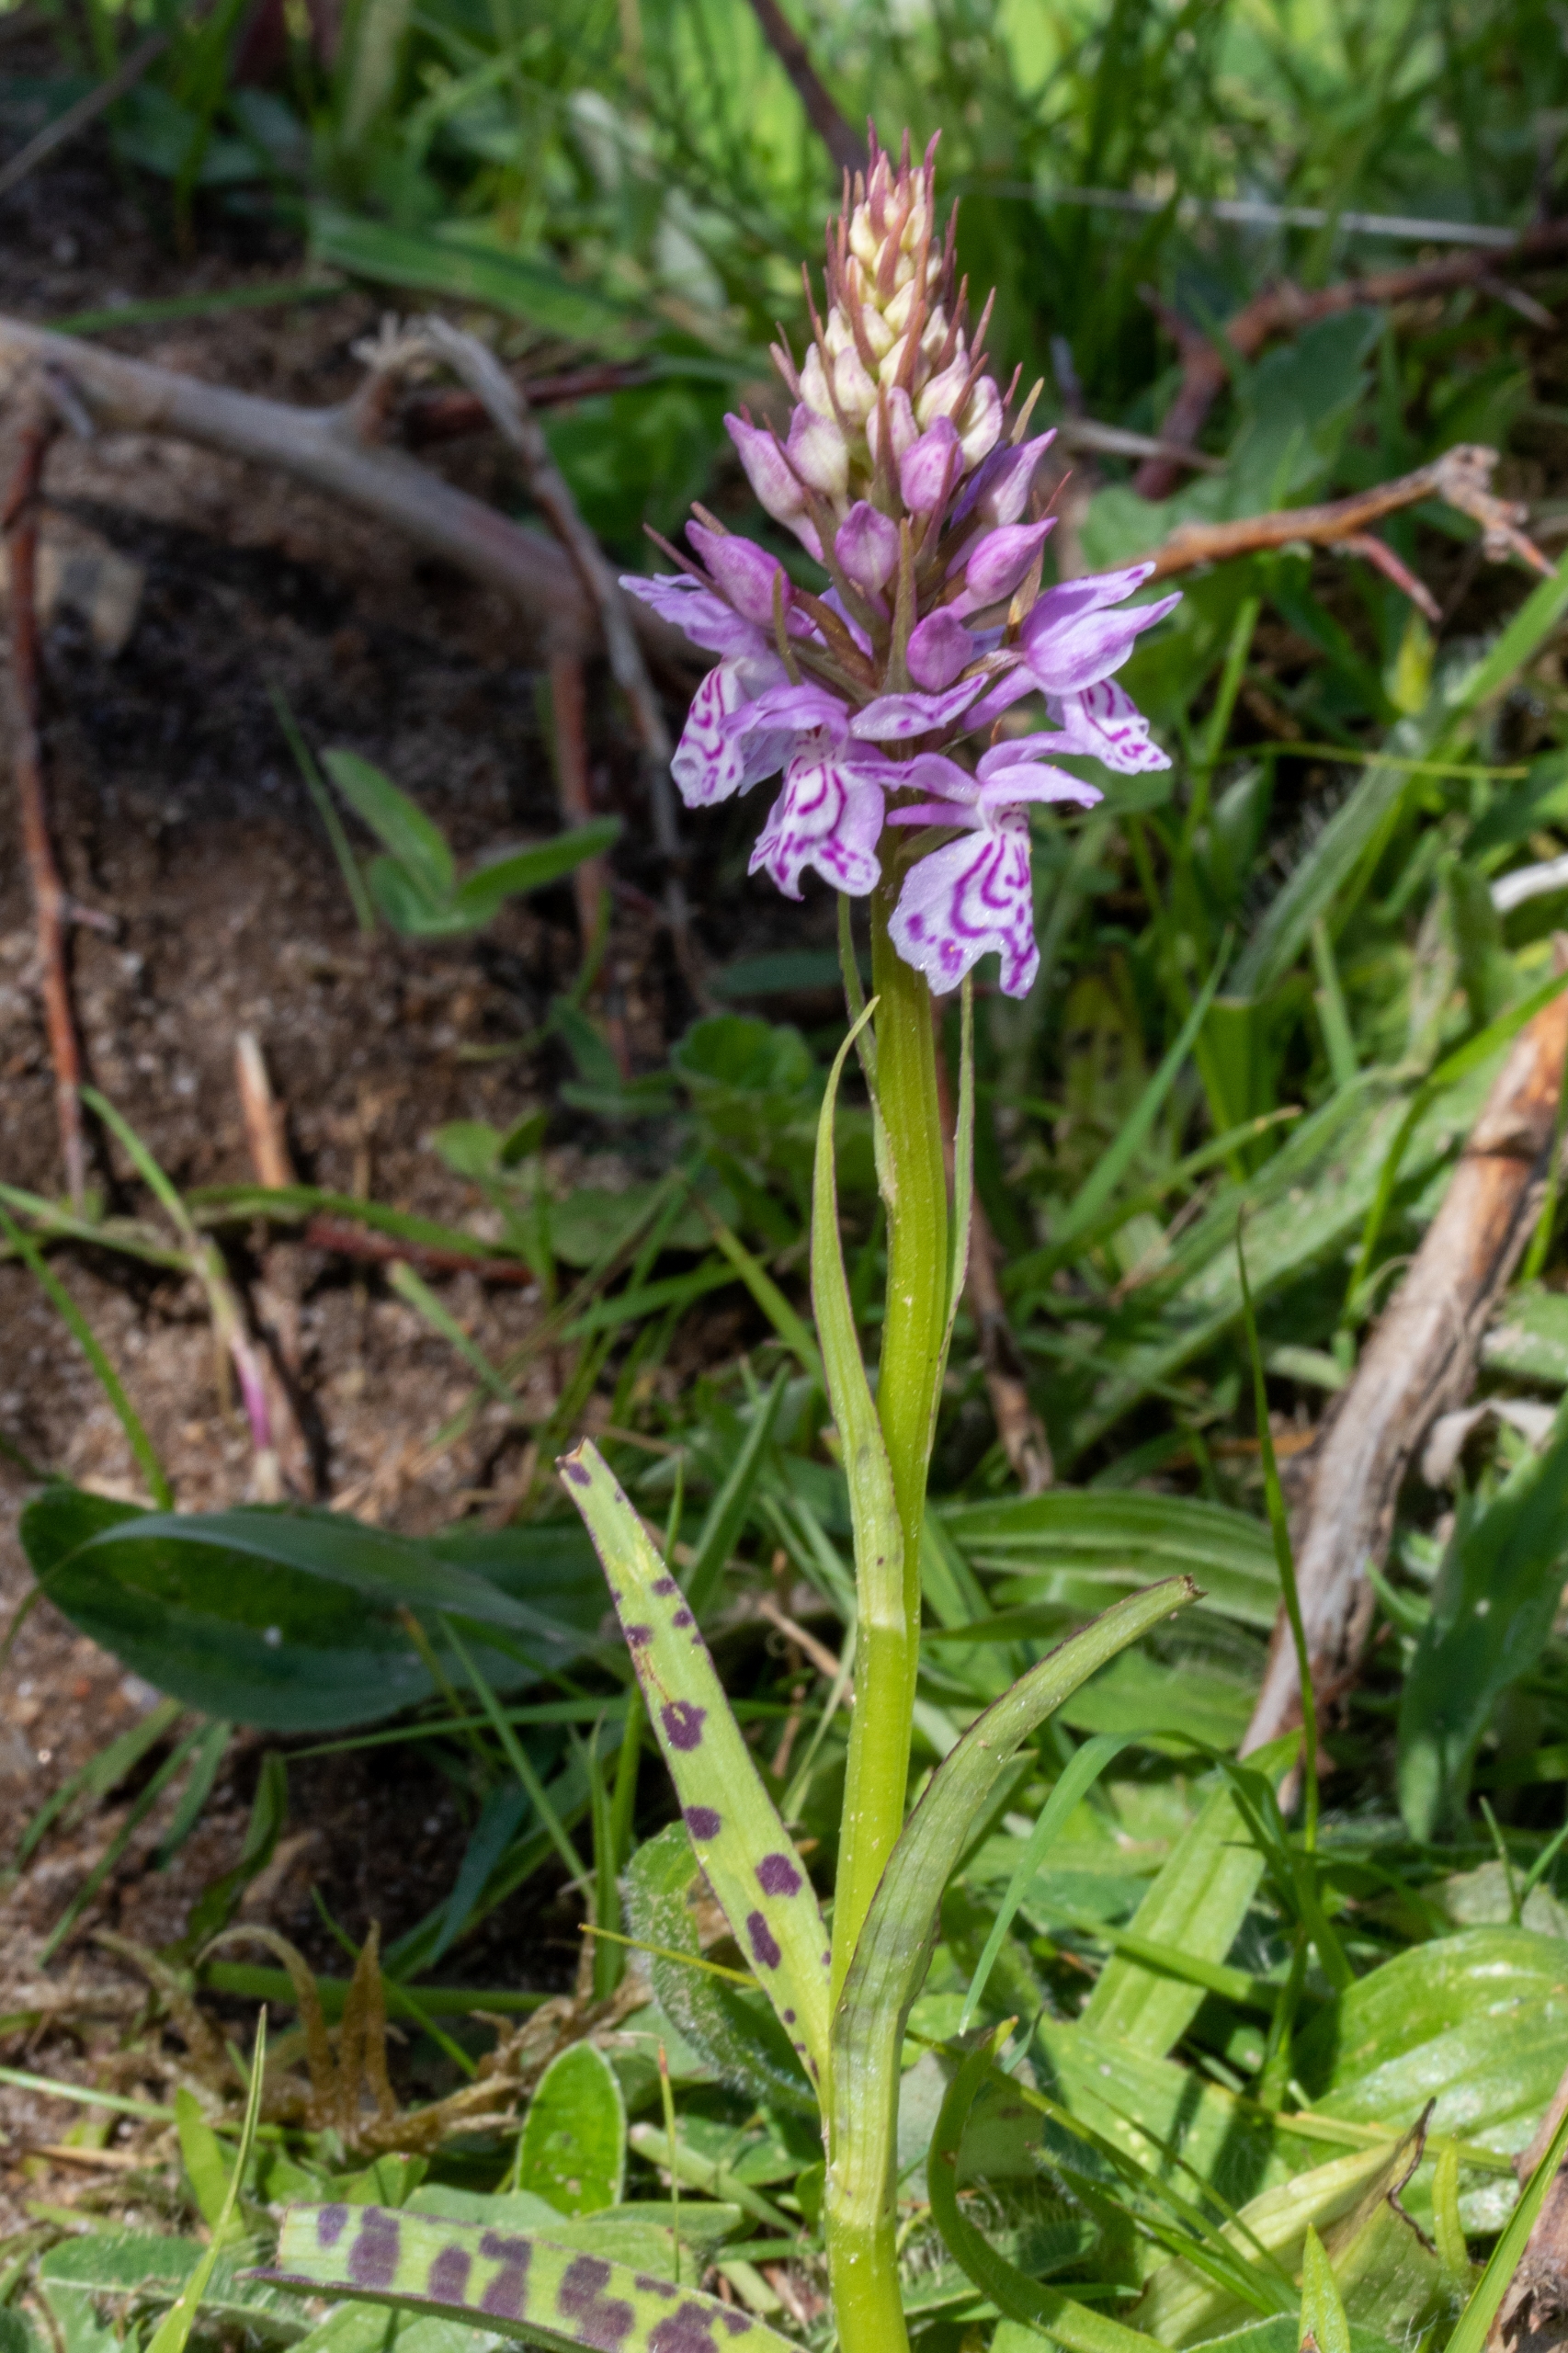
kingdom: Plantae
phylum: Tracheophyta
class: Liliopsida
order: Asparagales
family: Orchidaceae
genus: Dactylorhiza
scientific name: Dactylorhiza maculata
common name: Plettet gøgeurt (underart)
